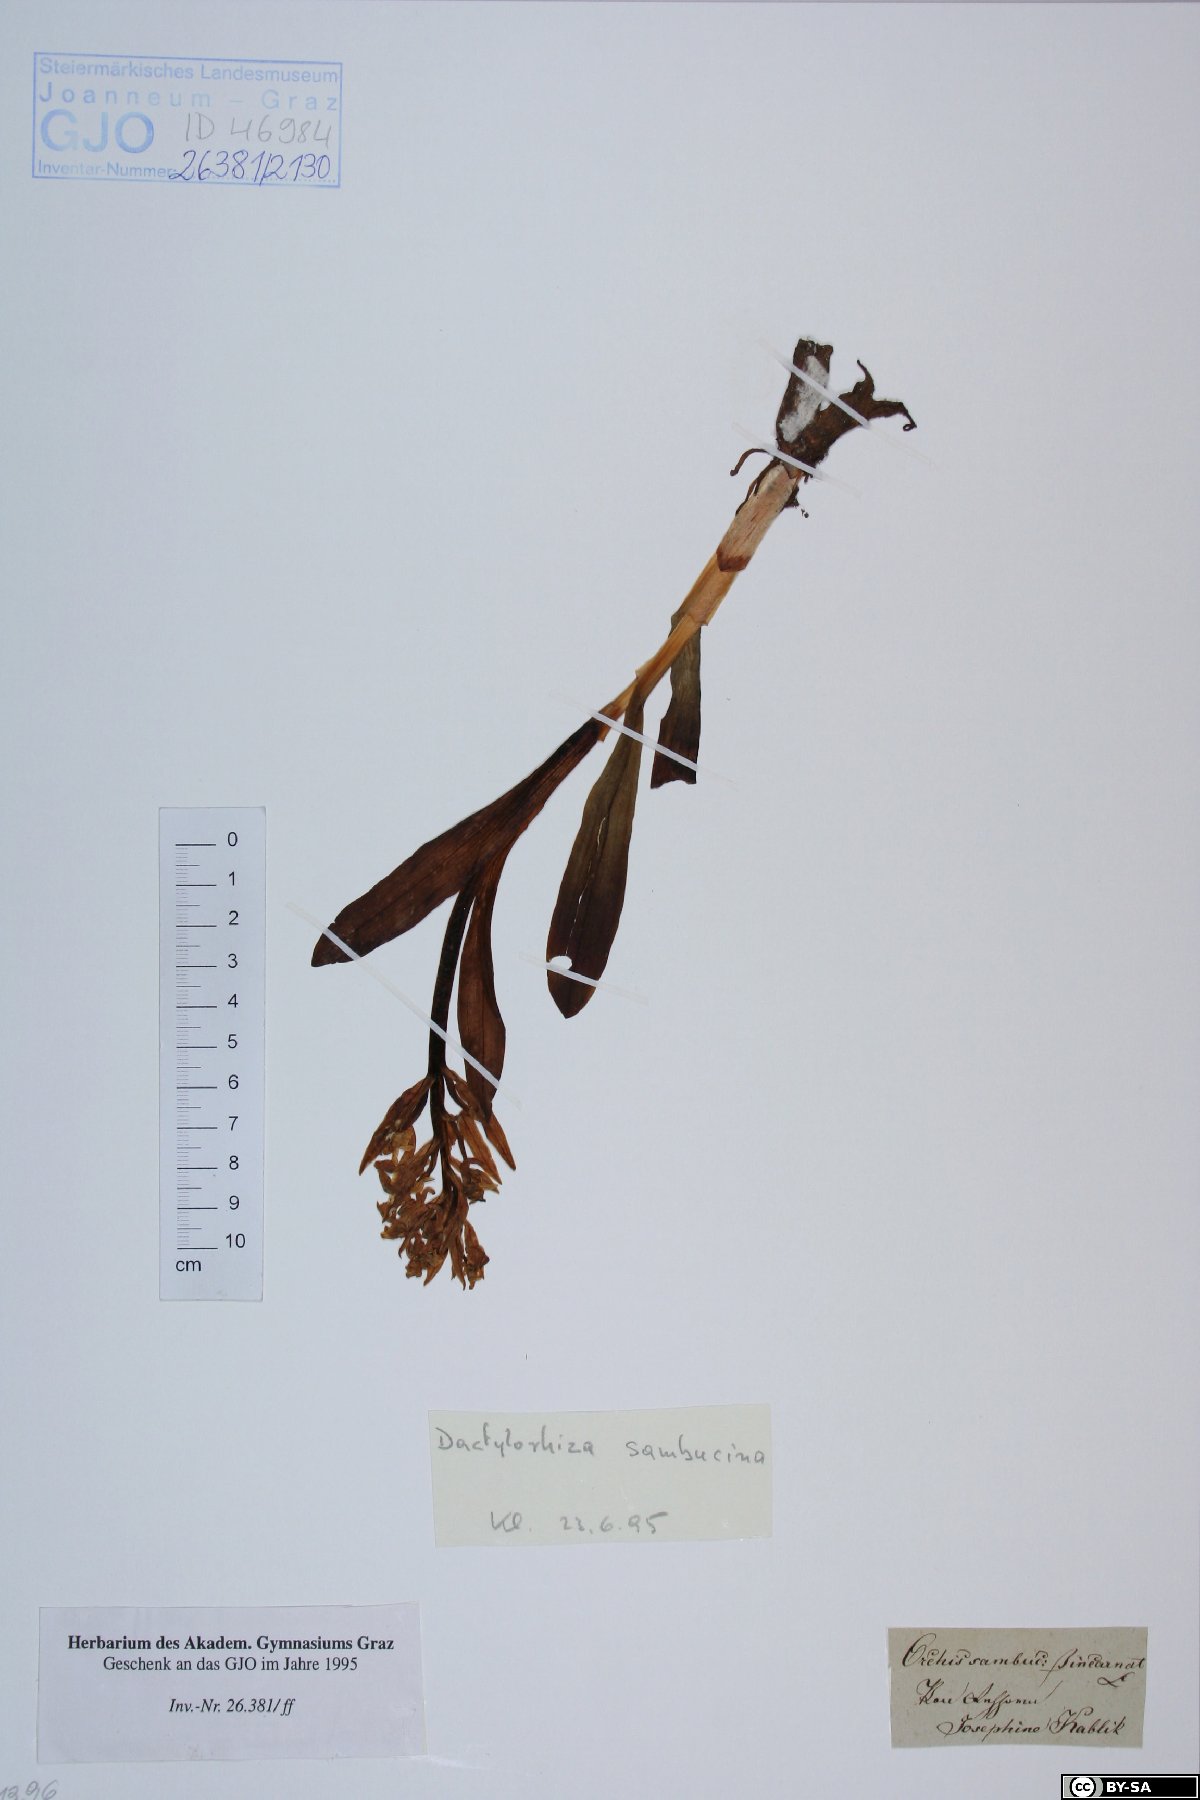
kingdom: Plantae
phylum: Tracheophyta
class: Liliopsida
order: Asparagales
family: Orchidaceae
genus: Dactylorhiza
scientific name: Dactylorhiza sambucina
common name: Elder-flowered orchid
